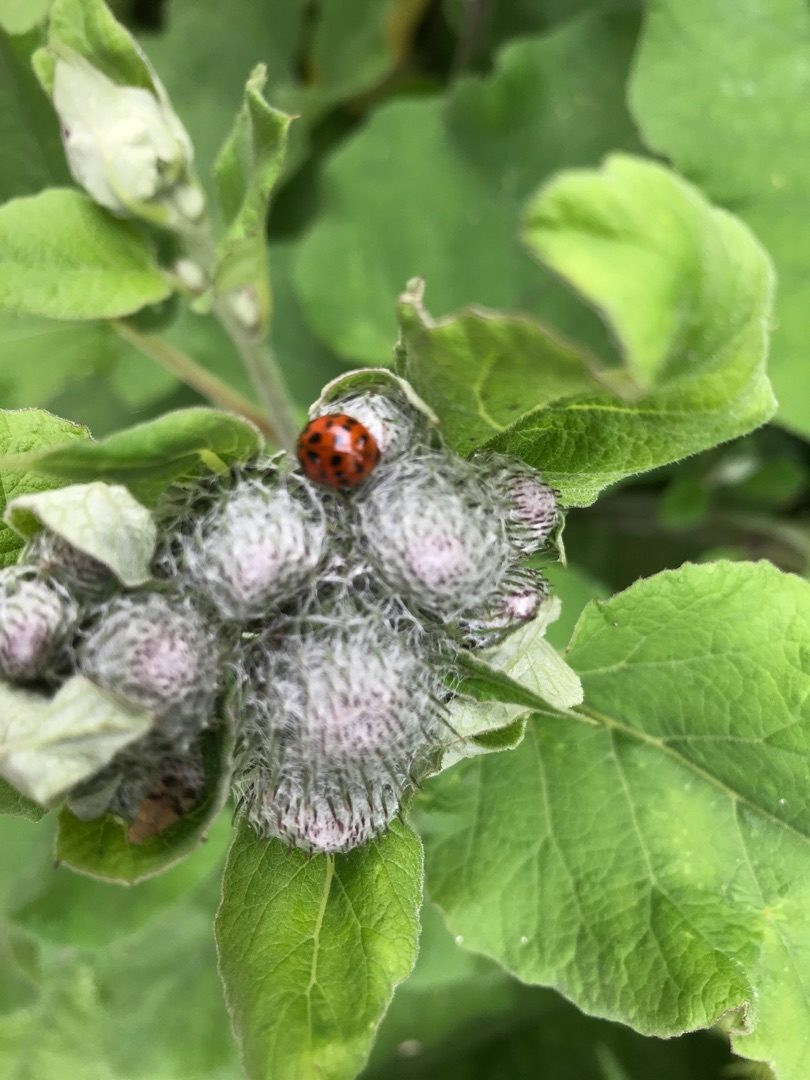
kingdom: Animalia
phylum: Arthropoda
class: Insecta
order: Coleoptera
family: Coccinellidae
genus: Harmonia
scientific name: Harmonia axyridis
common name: Harlekinmariehøne
